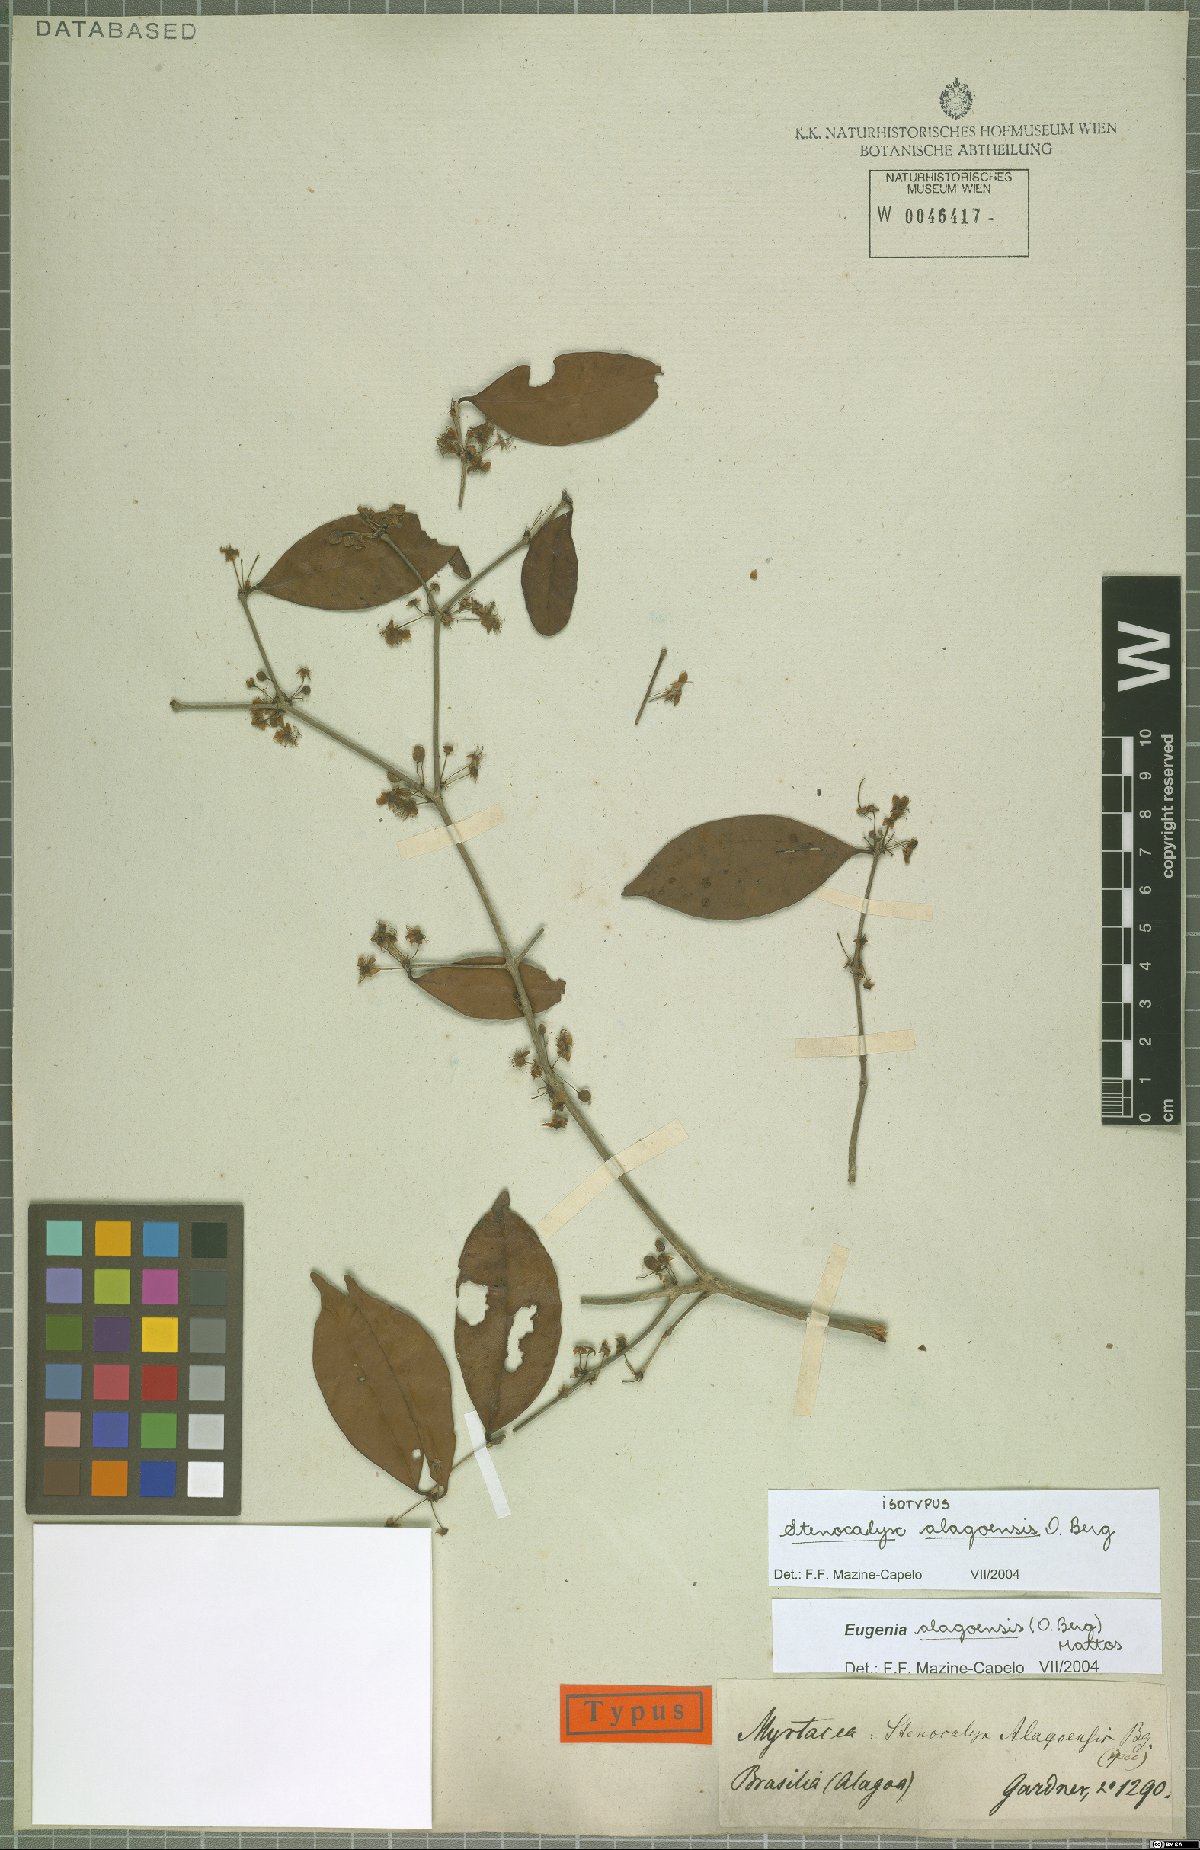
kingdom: Plantae
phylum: Tracheophyta
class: Magnoliopsida
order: Myrtales
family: Myrtaceae
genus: Eugenia
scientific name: Eugenia alagoensis
